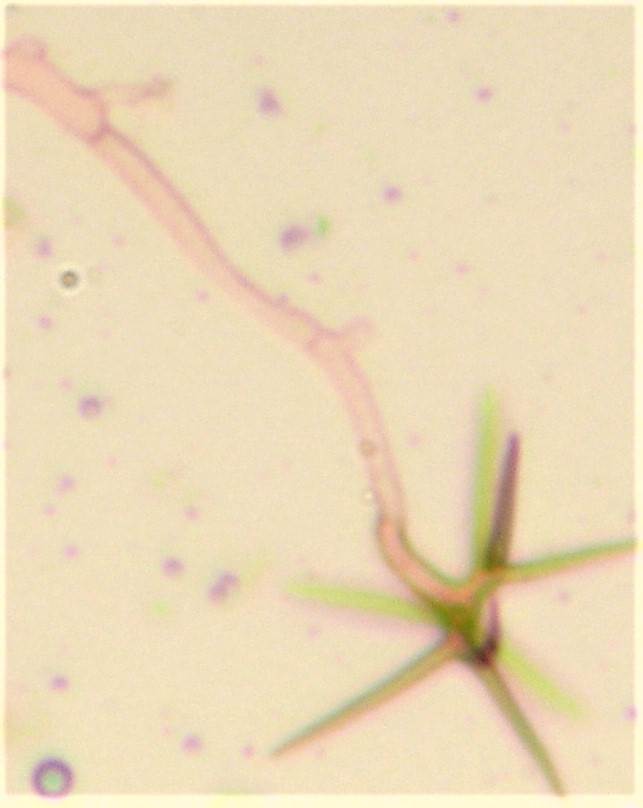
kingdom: Fungi
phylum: Basidiomycota
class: Agaricomycetes
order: Russulales
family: Peniophoraceae
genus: Asterostroma
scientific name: Asterostroma laxum
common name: lysrandet stjerneskind
